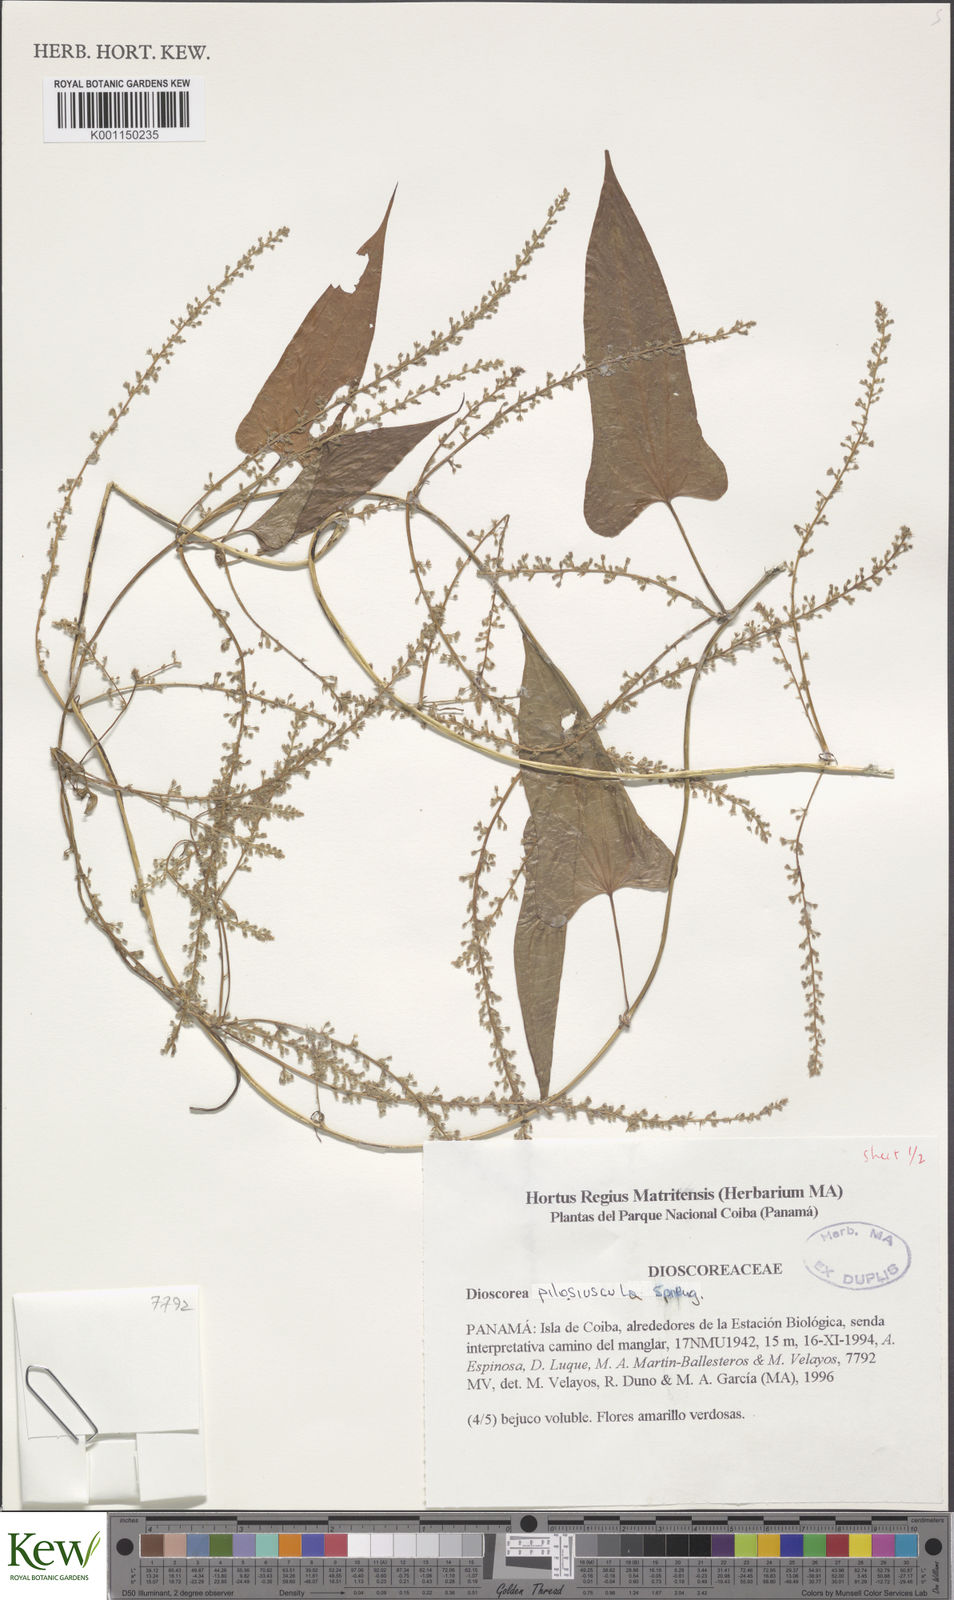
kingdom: Plantae
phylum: Tracheophyta
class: Liliopsida
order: Dioscoreales
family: Dioscoreaceae
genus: Dioscorea
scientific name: Dioscorea pilosiuscula
